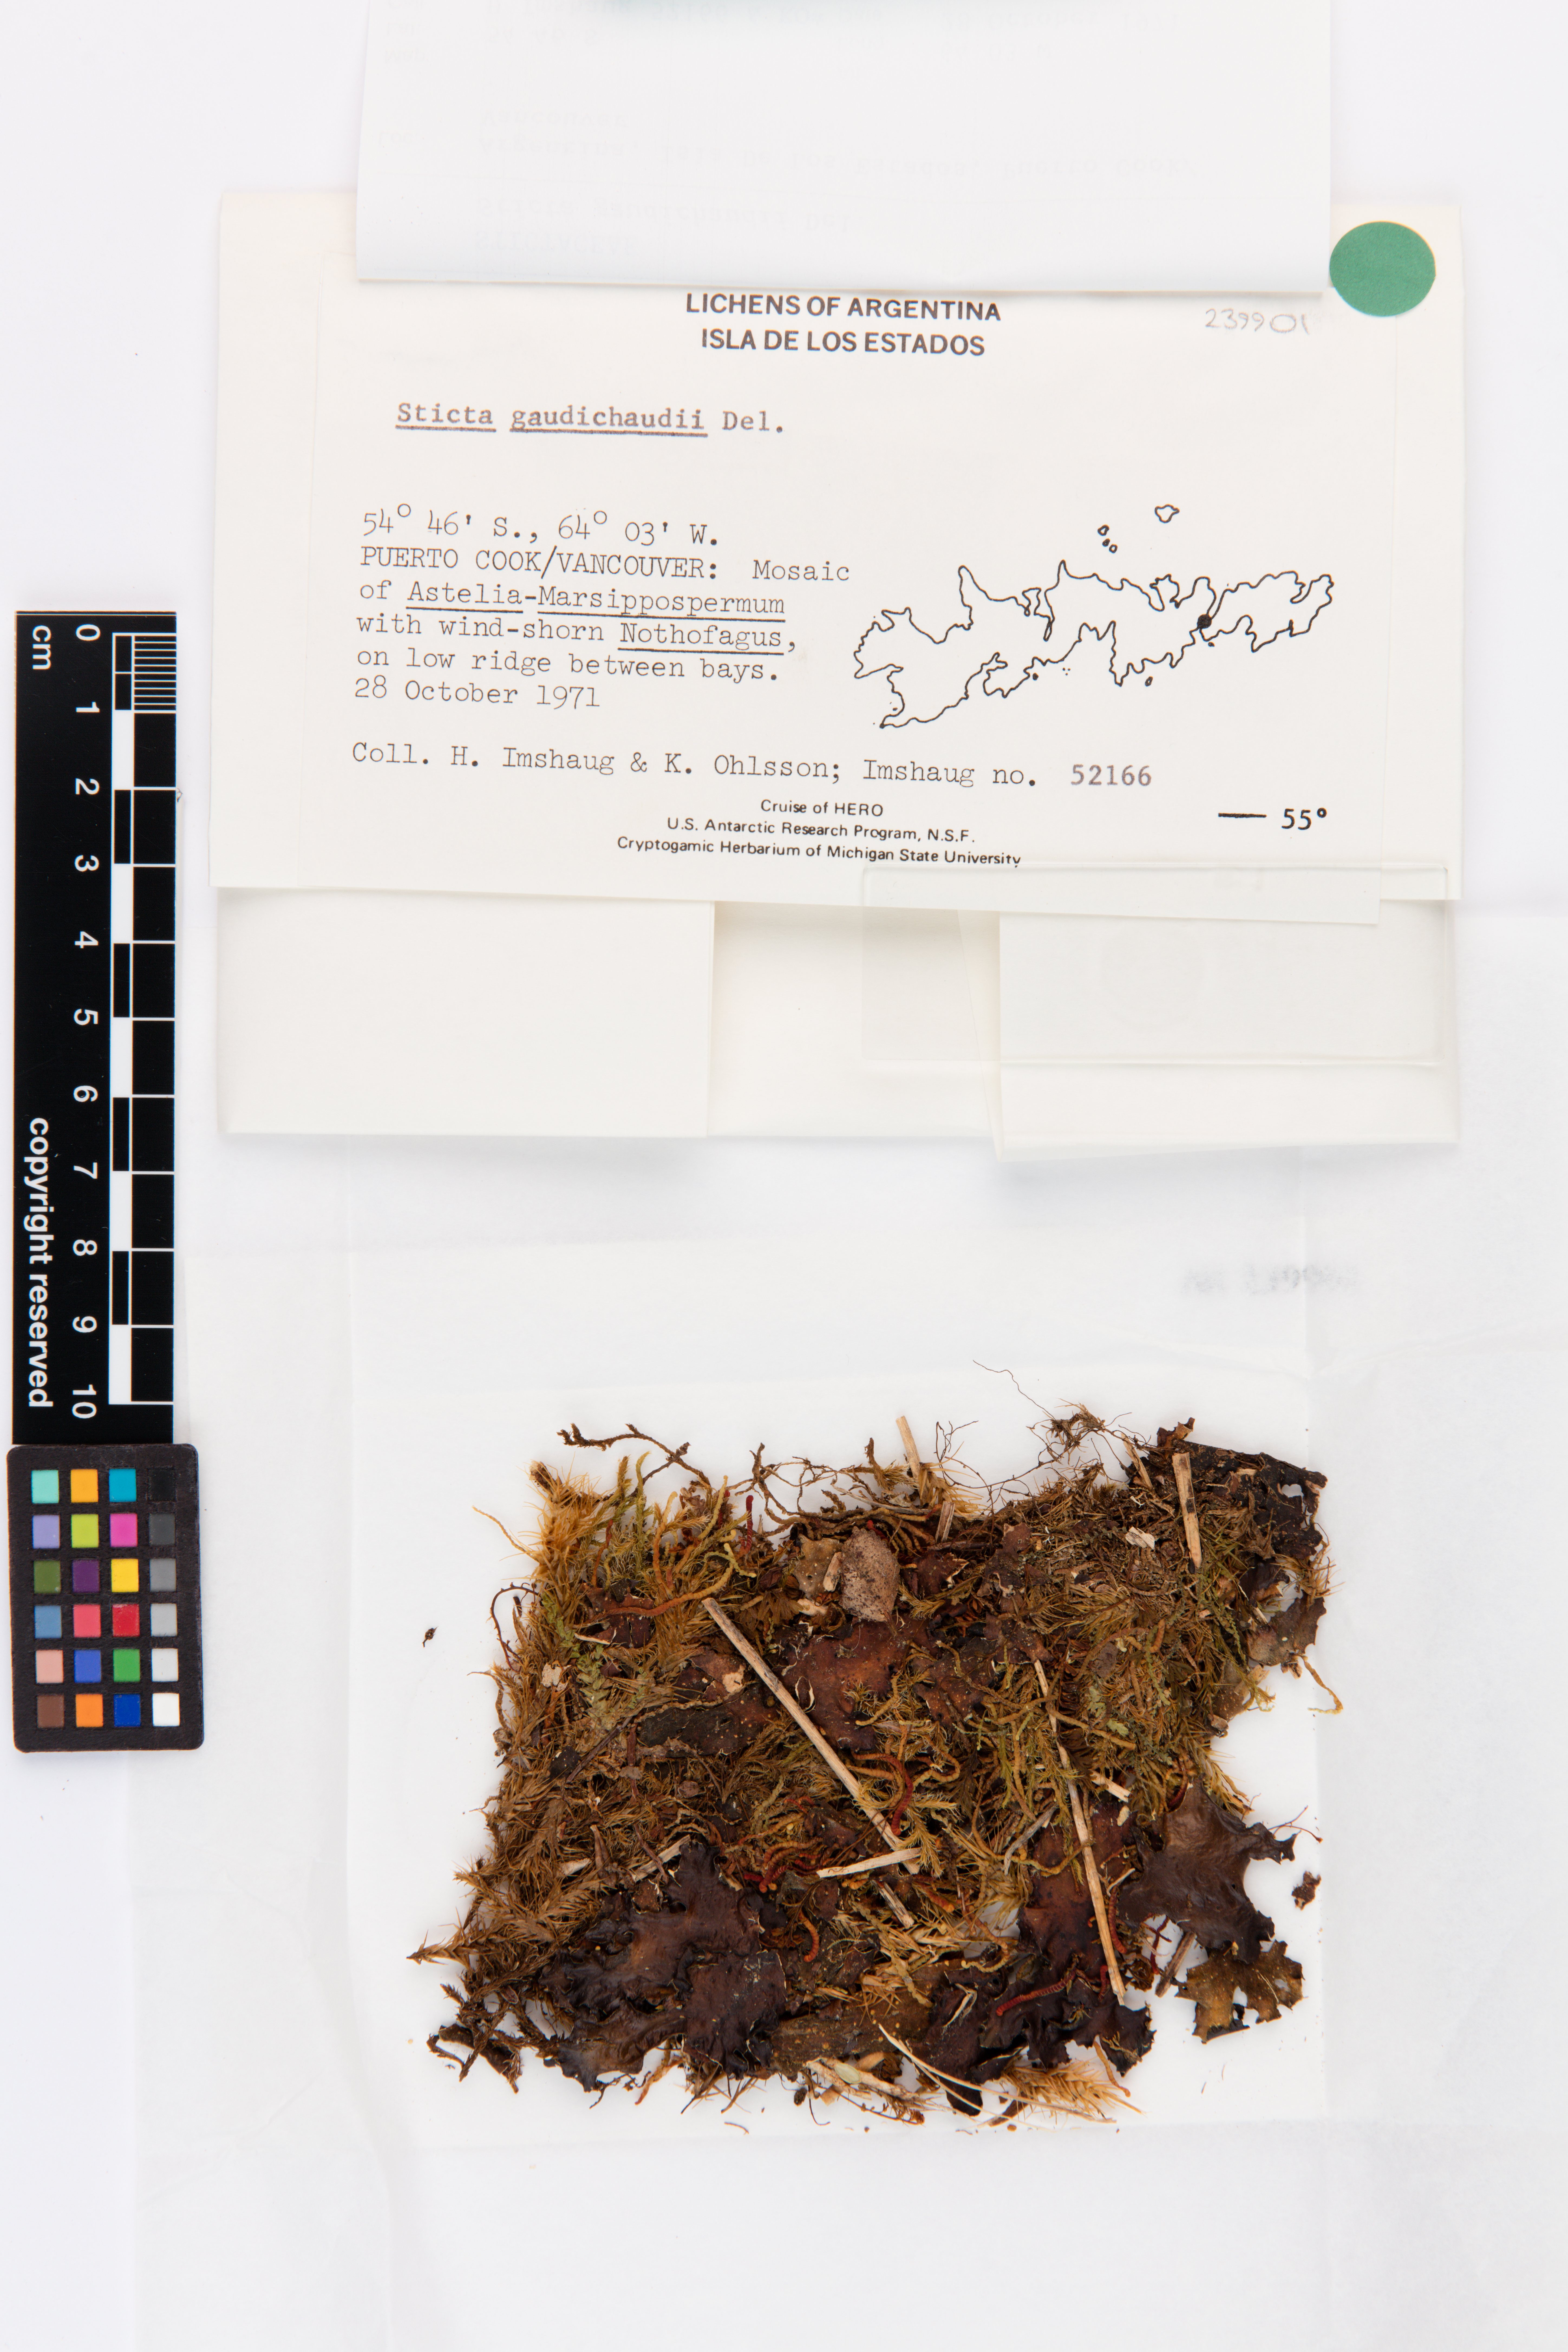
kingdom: Fungi
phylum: Ascomycota
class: Lecanoromycetes
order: Peltigerales
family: Lobariaceae
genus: Sticta
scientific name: Sticta gaudichaudii
